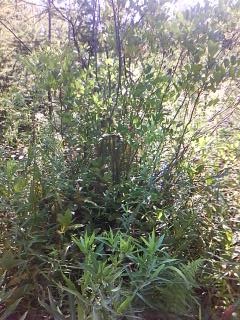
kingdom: Plantae
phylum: Tracheophyta
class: Magnoliopsida
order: Asterales
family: Asteraceae
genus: Solidago
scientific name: Solidago patula
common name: Rough-leaf goldenrod
